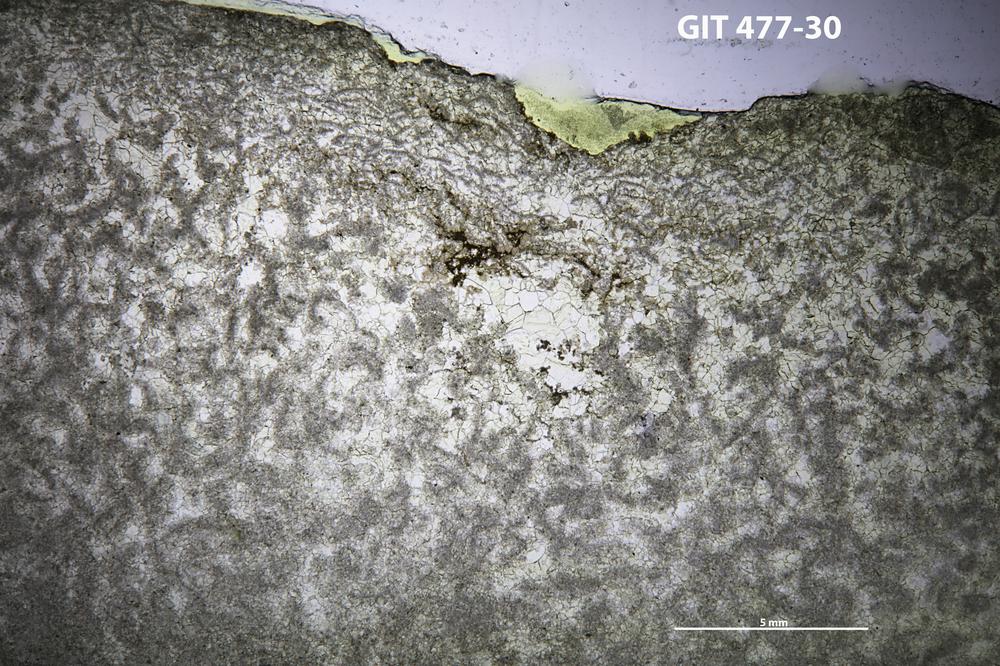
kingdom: Animalia
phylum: Porifera
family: Labechiidae
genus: Stromatocerium
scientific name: Stromatocerium
